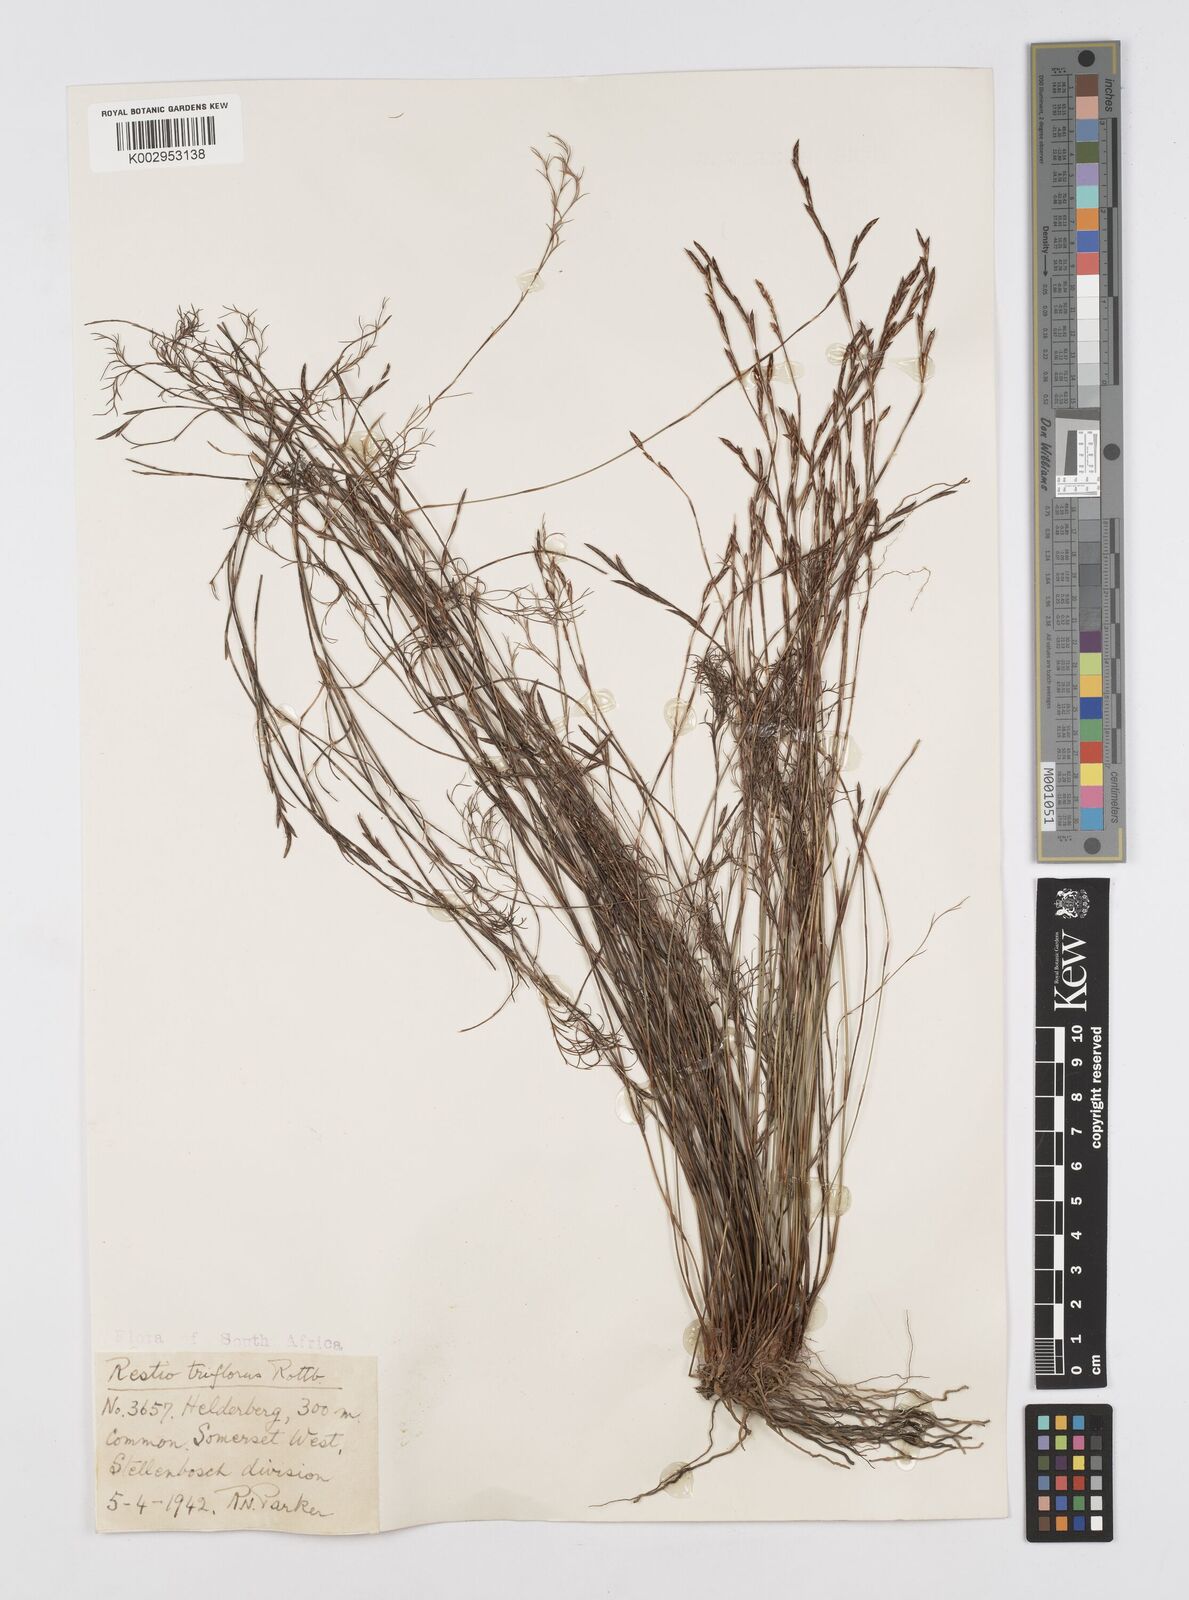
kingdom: Plantae
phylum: Tracheophyta
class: Liliopsida
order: Poales
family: Restionaceae
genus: Restio
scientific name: Restio triflorus
